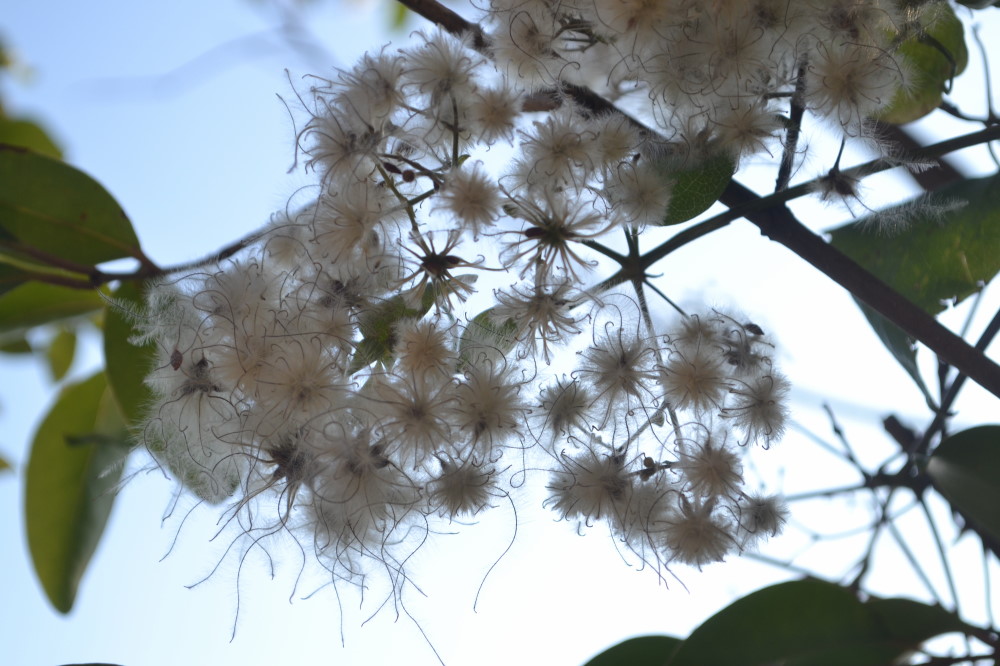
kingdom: Plantae
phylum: Tracheophyta
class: Magnoliopsida
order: Ranunculales
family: Ranunculaceae
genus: Clematis
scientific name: Clematis integrifolia
